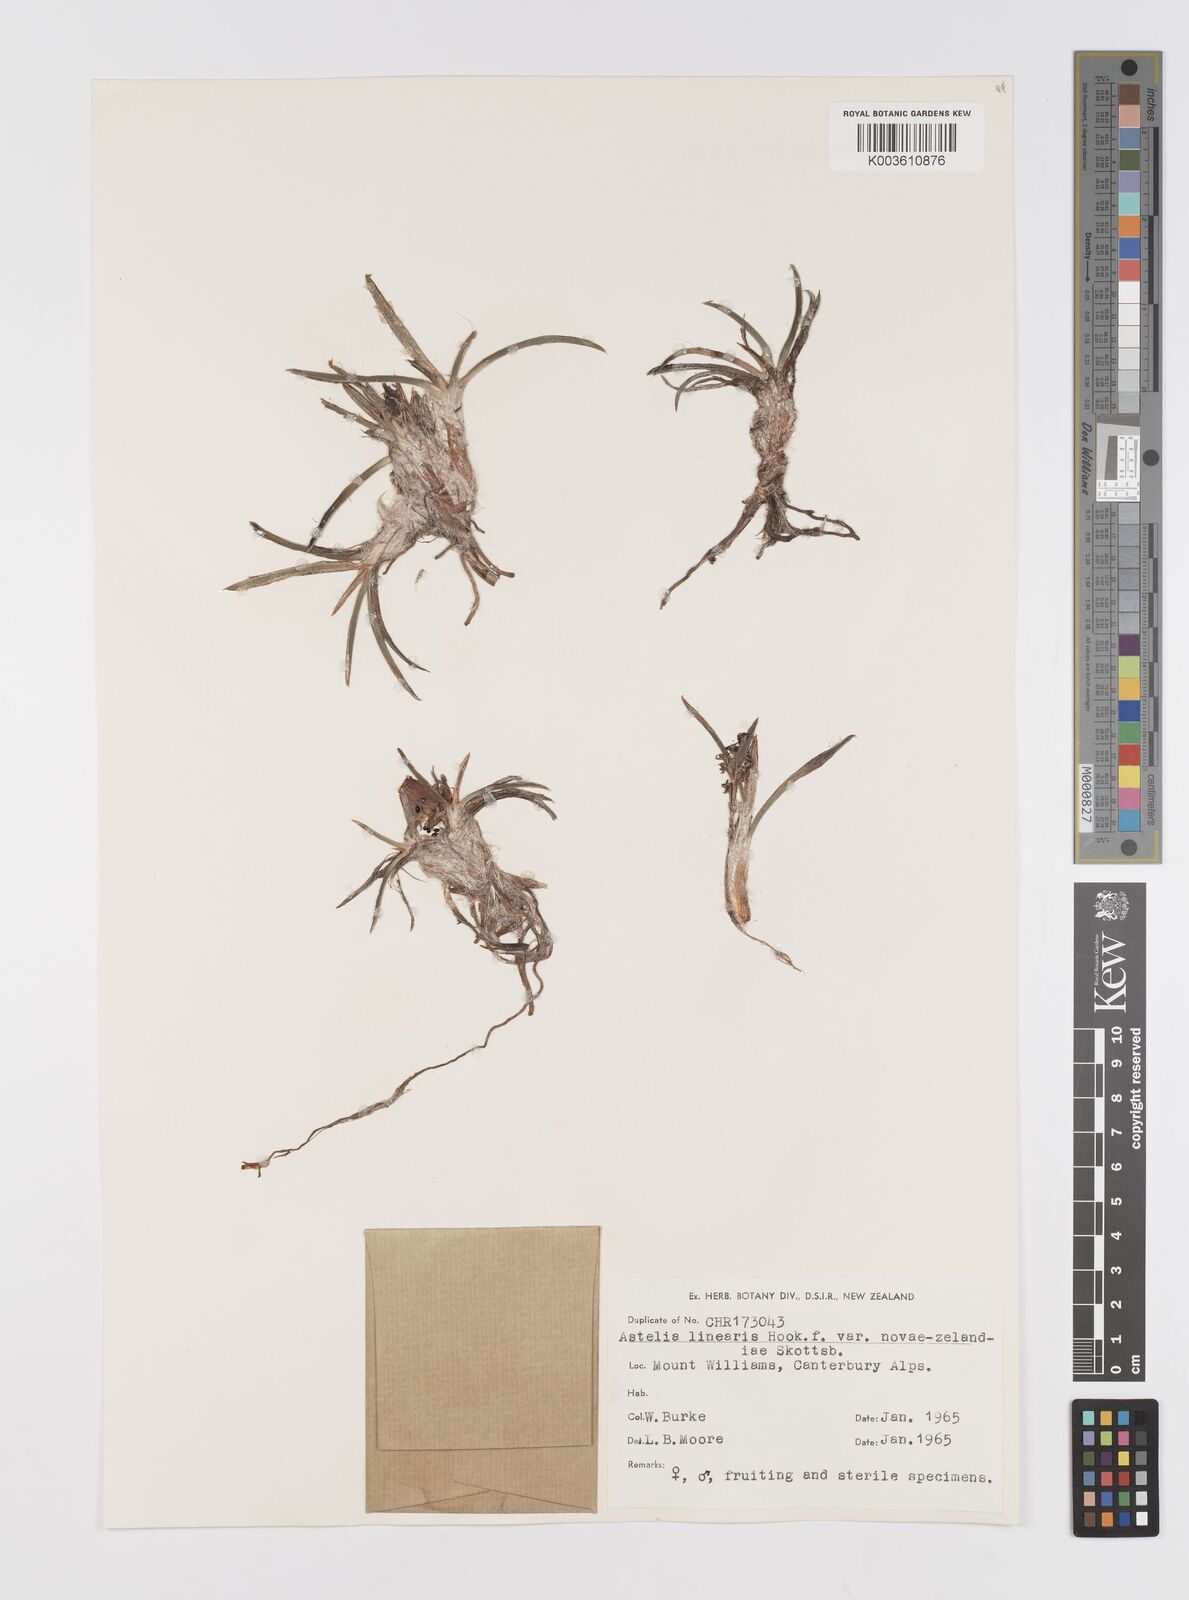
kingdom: Plantae
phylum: Tracheophyta
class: Liliopsida
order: Asparagales
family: Asteliaceae
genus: Astelia
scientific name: Astelia linearis
